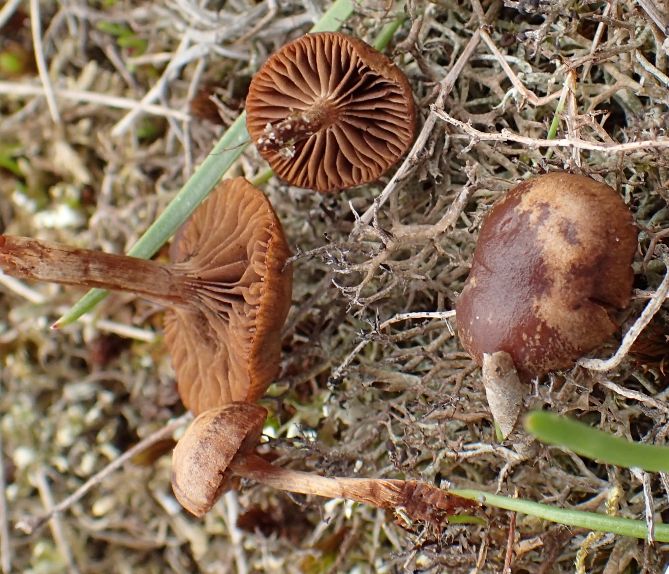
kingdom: Fungi
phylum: Basidiomycota
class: Agaricomycetes
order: Agaricales
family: Strophariaceae
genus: Deconica
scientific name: Deconica montana
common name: rødbrun stråhat
